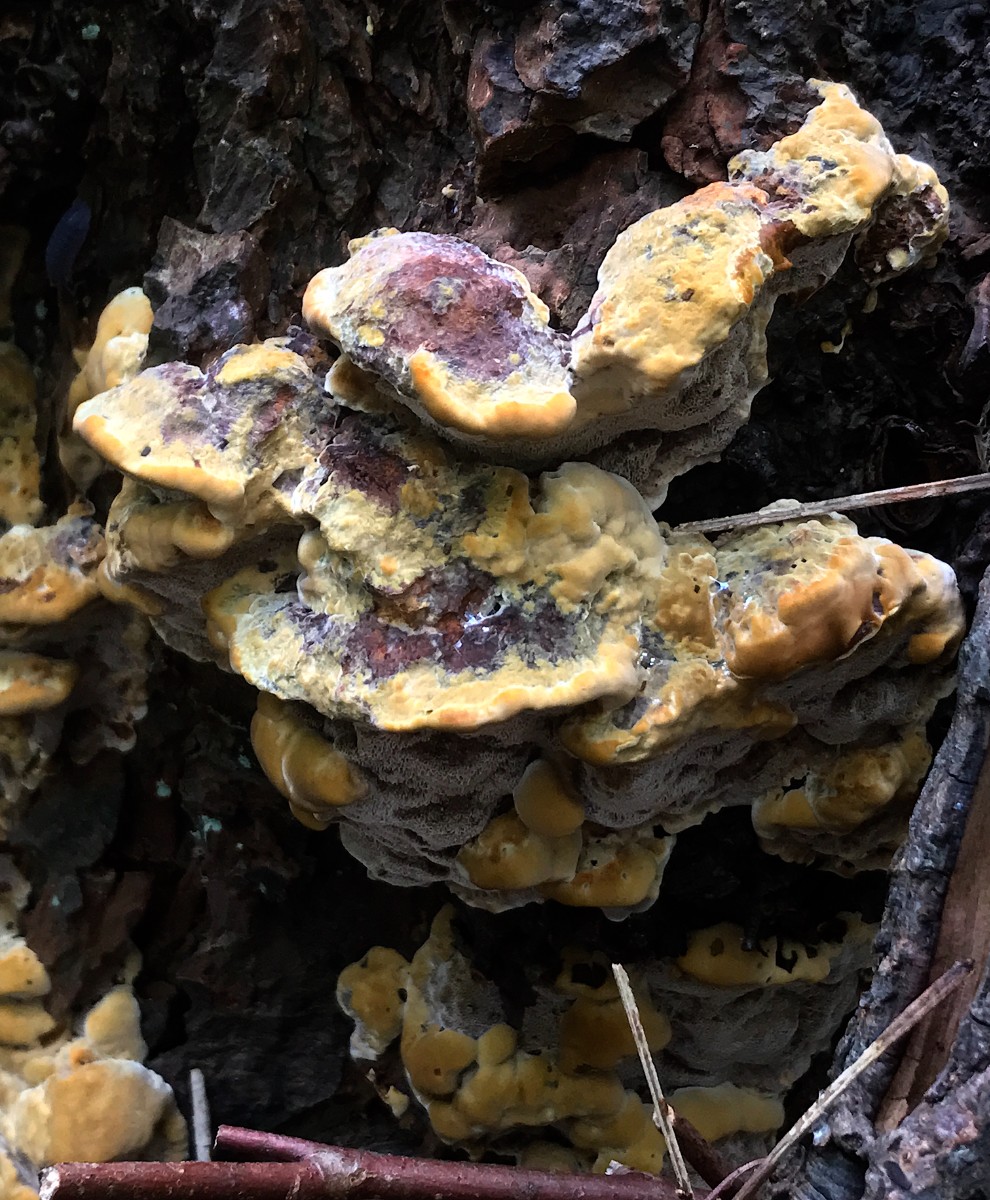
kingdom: Fungi
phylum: Basidiomycota
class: Agaricomycetes
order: Hymenochaetales
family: Hymenochaetaceae
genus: Xanthoporia
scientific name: Xanthoporia radiata
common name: elle-spejlporesvamp
